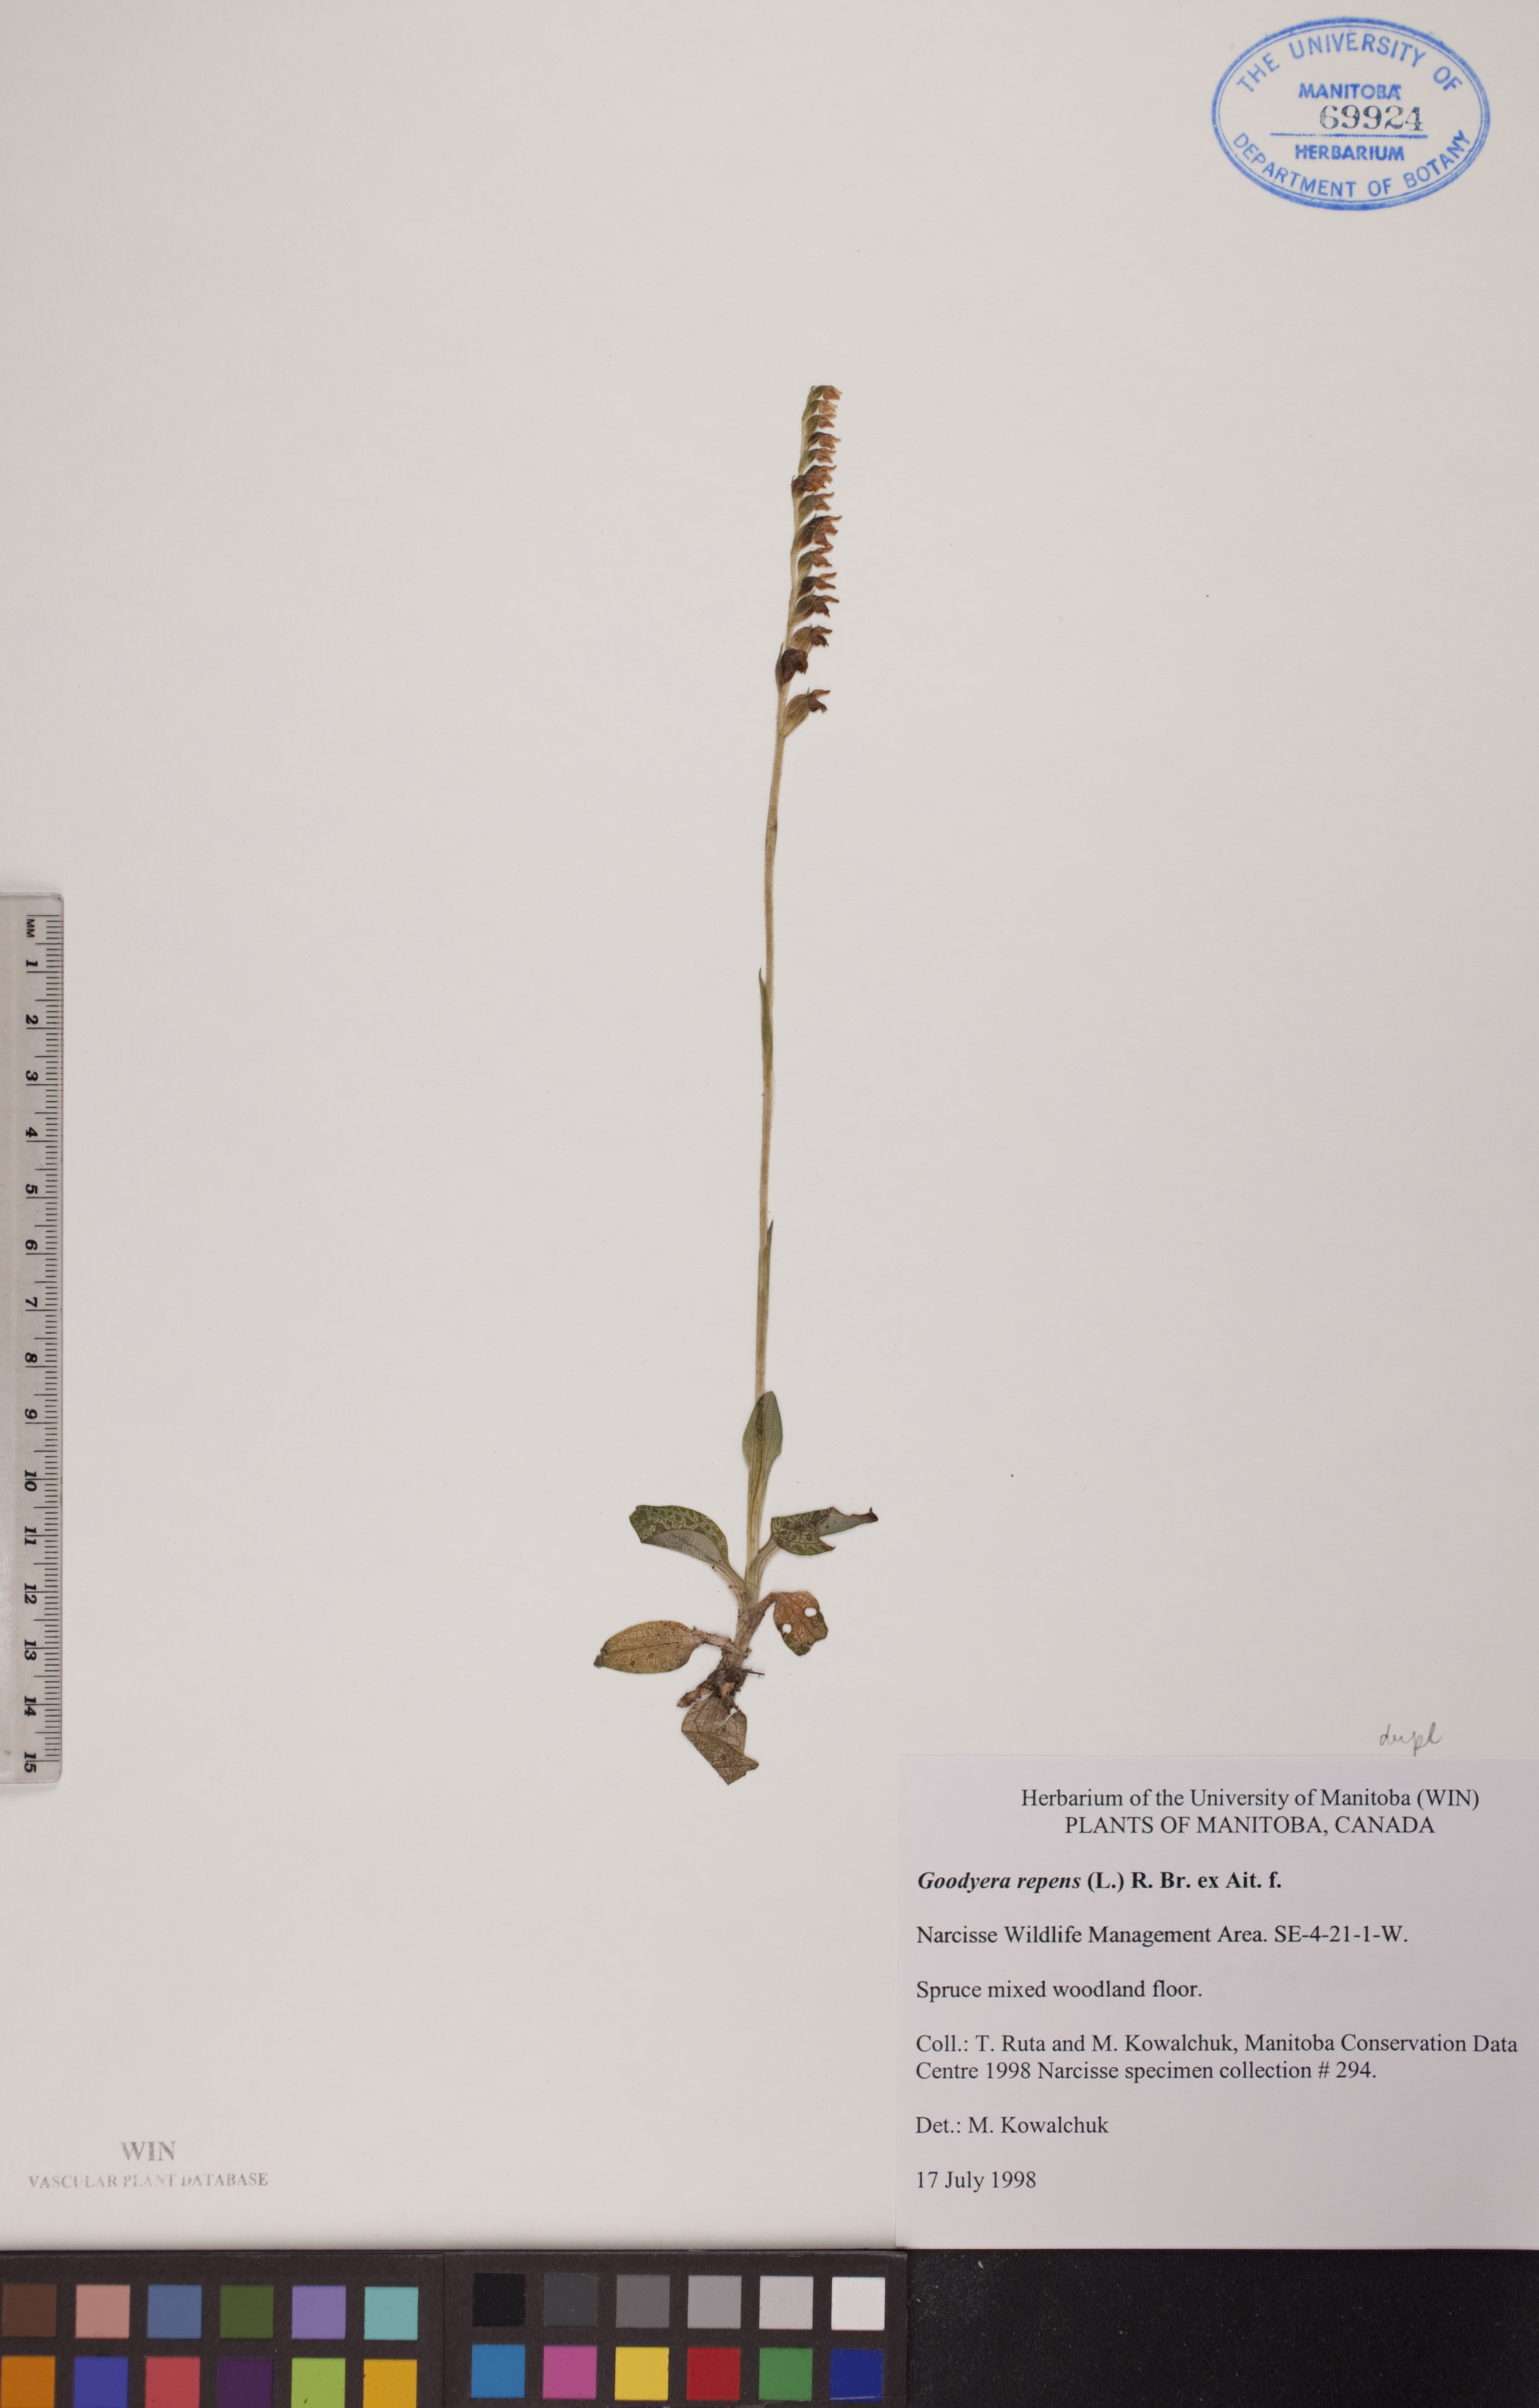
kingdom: Plantae
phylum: Tracheophyta
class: Liliopsida
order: Asparagales
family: Orchidaceae
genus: Goodyera
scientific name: Goodyera repens
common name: Creeping lady's-tresses
